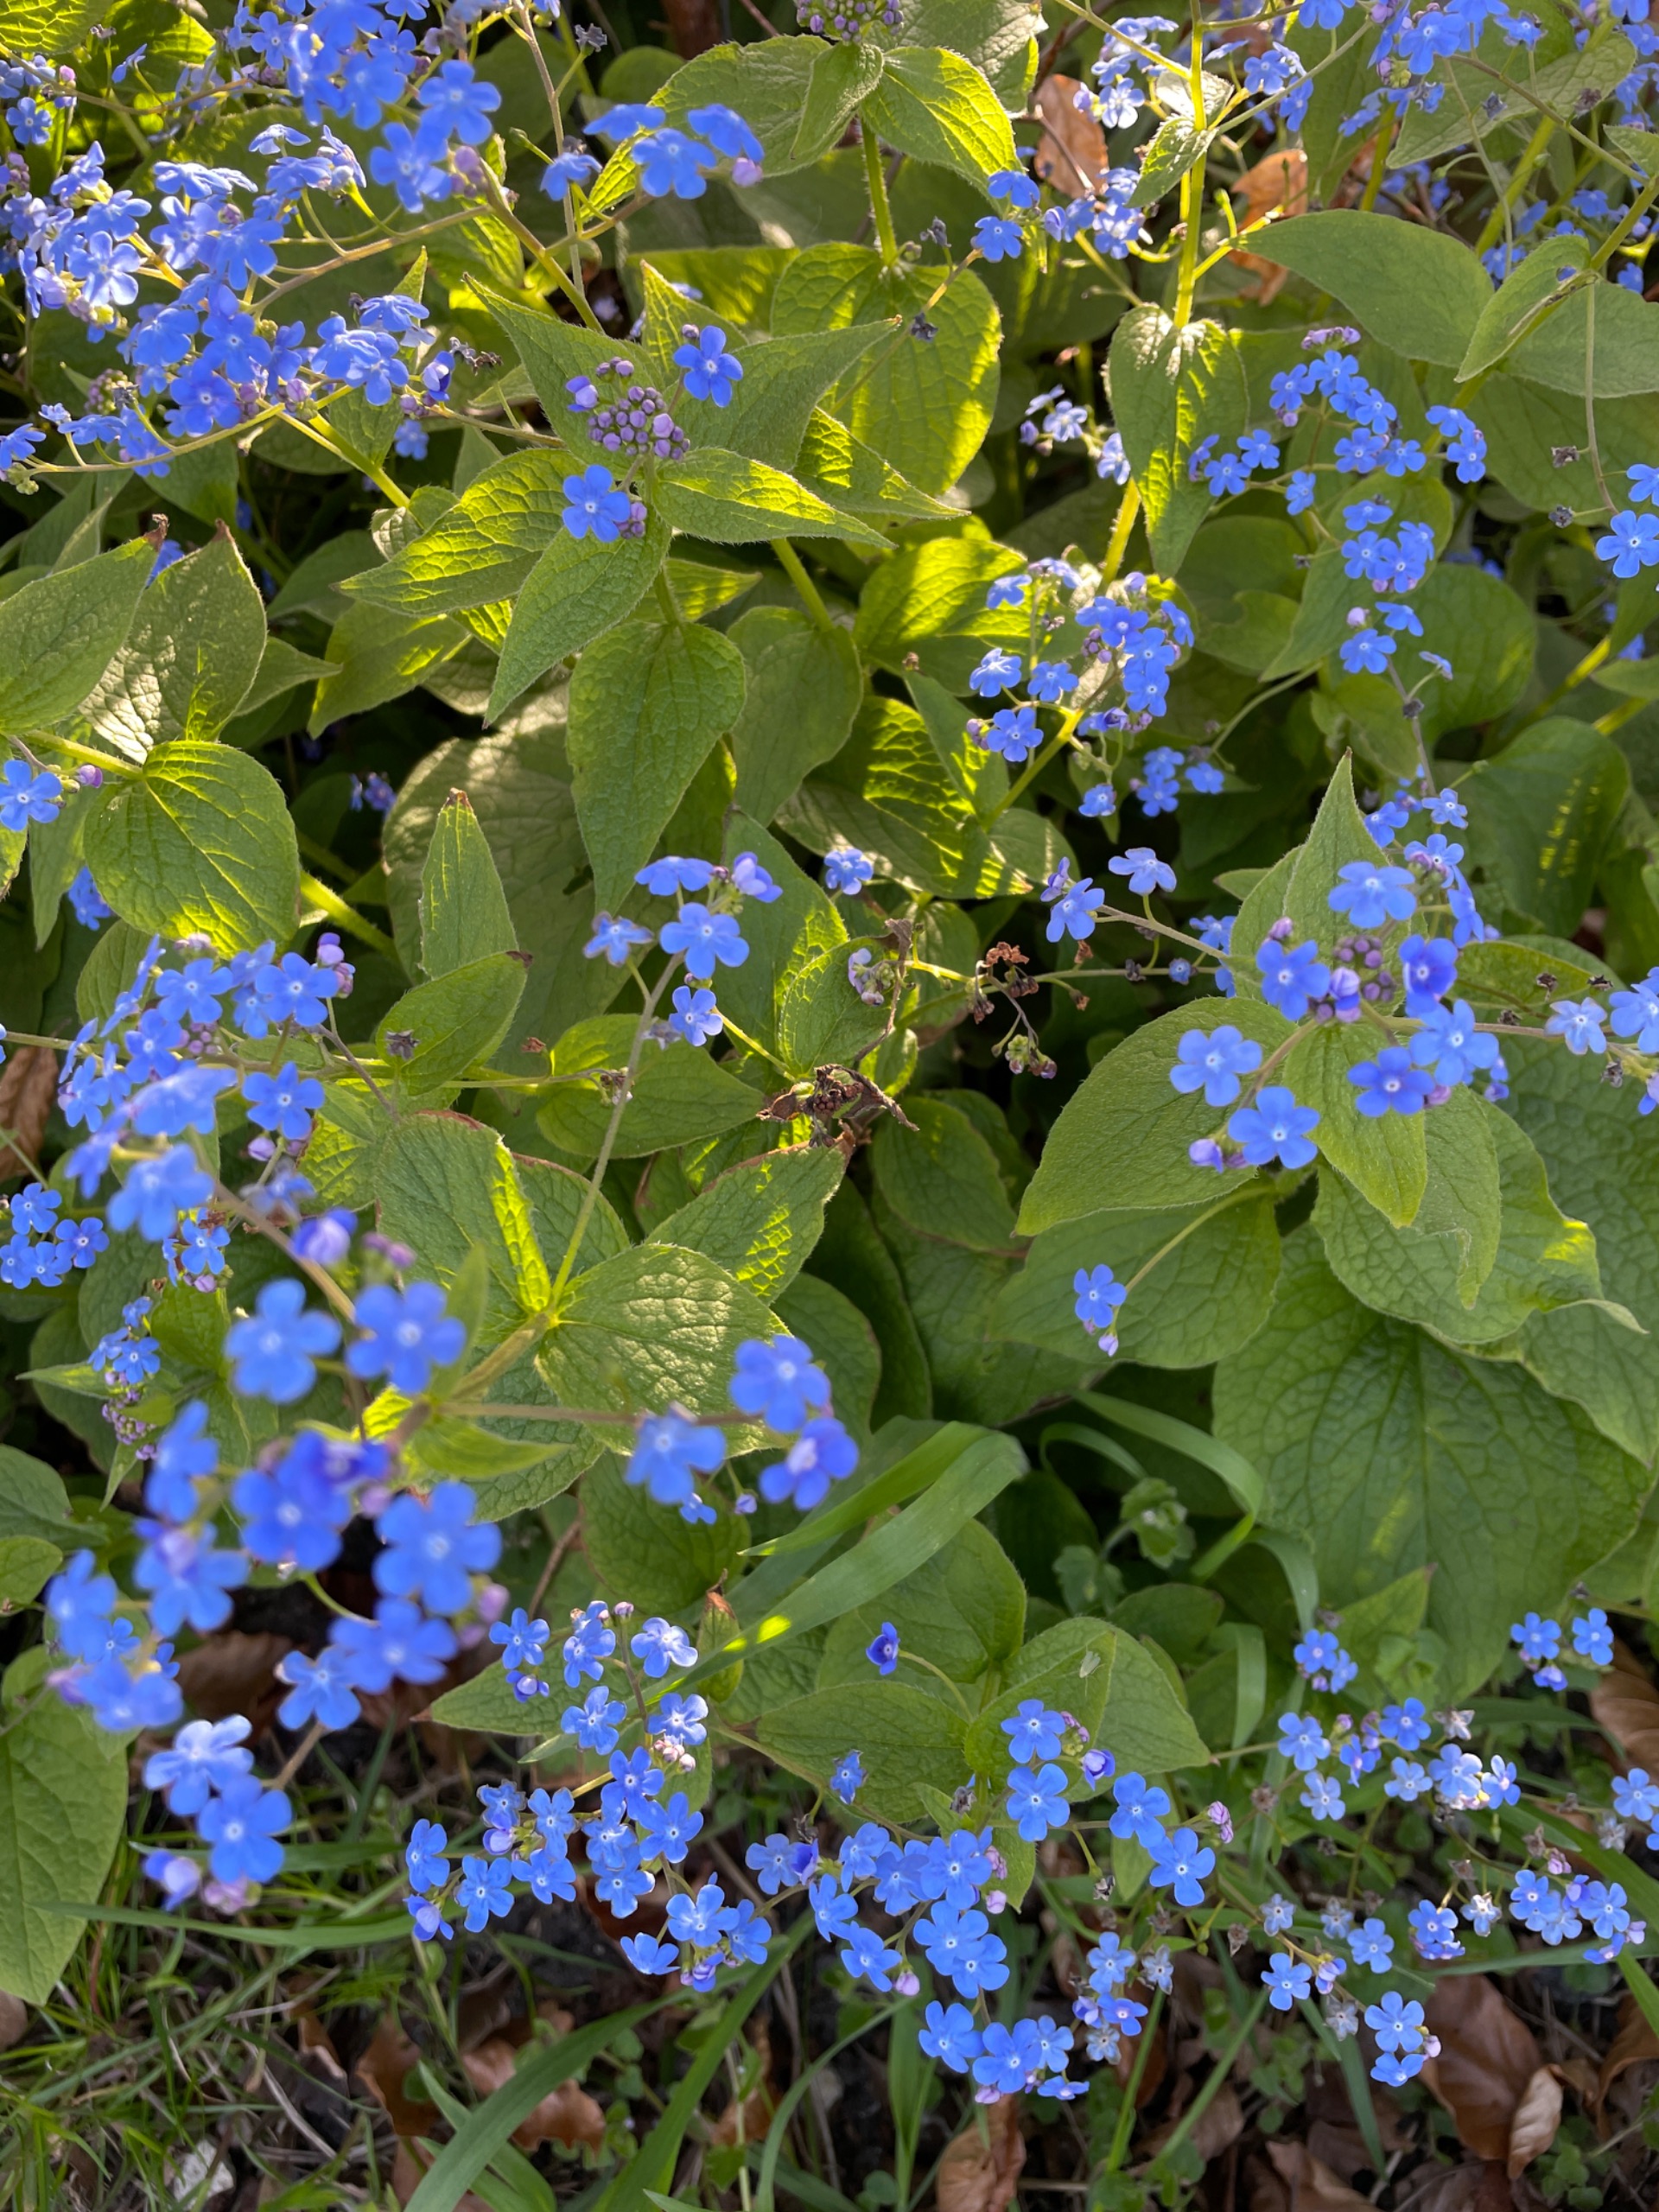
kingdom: Plantae
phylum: Tracheophyta
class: Magnoliopsida
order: Boraginales
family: Boraginaceae
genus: Brunnera
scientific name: Brunnera macrophylla
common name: Kærmindesøster
